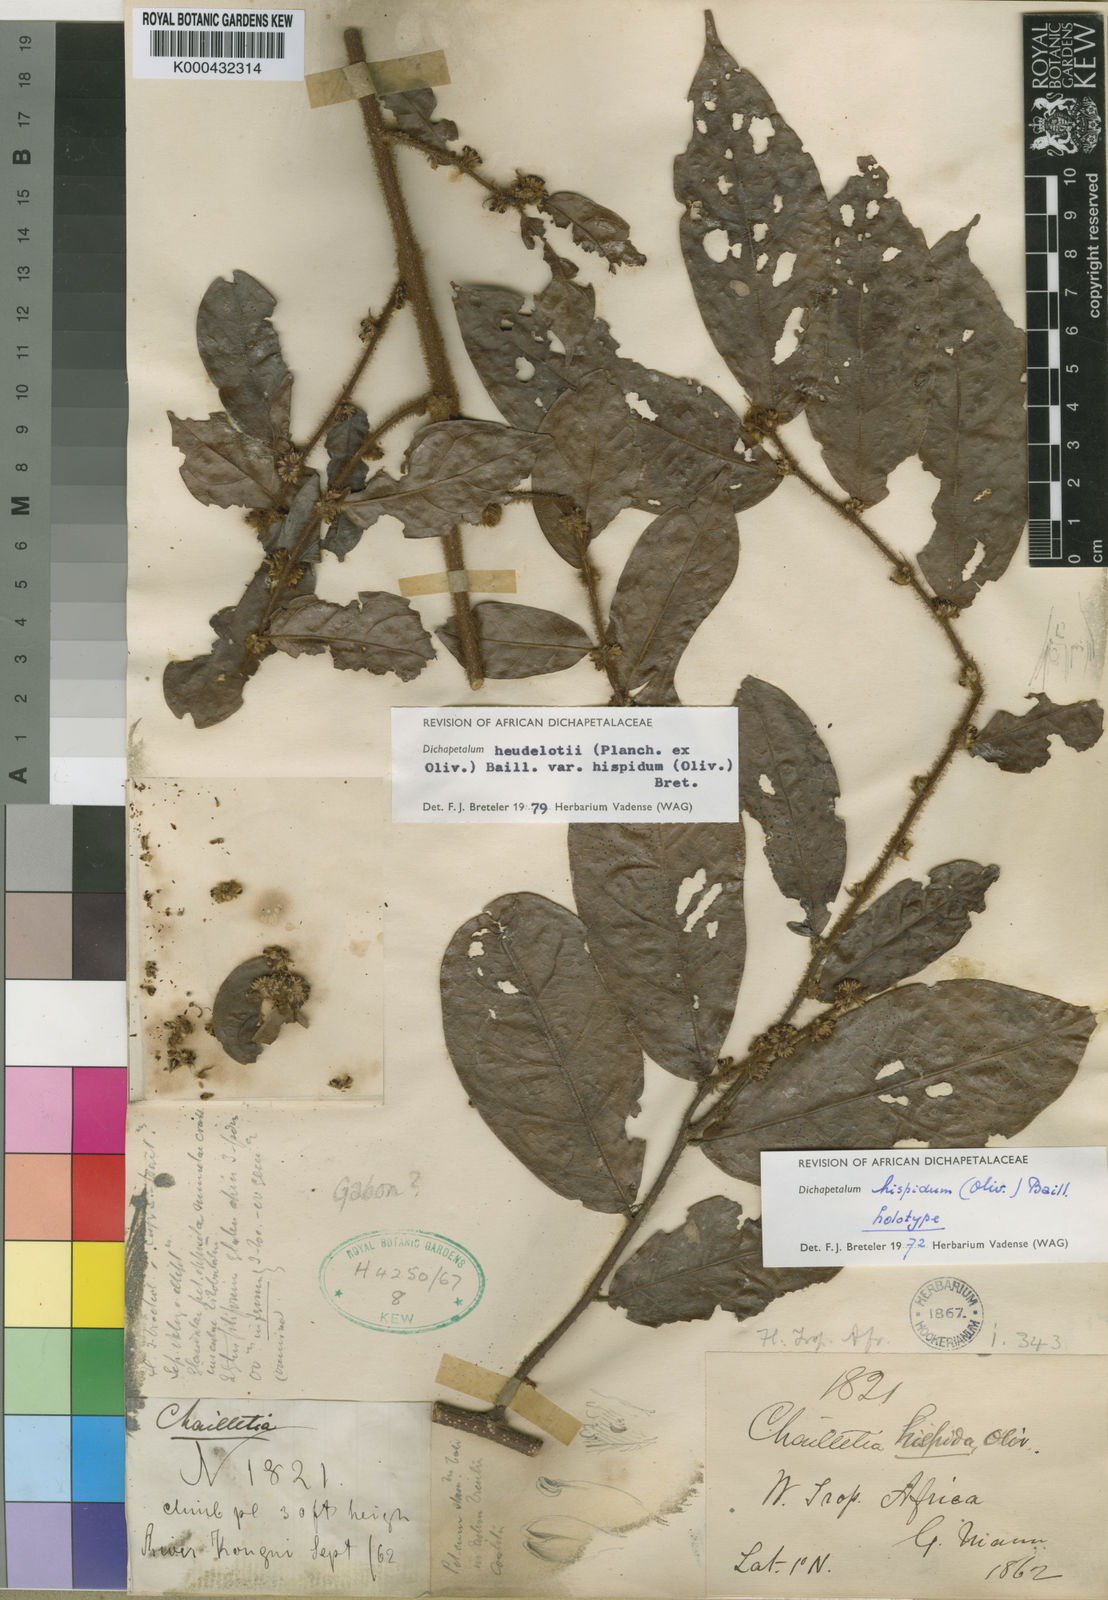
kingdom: Plantae
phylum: Tracheophyta
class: Magnoliopsida
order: Malpighiales
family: Dichapetalaceae
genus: Dichapetalum
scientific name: Dichapetalum heudelotii
